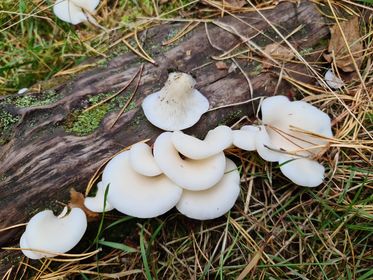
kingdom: Fungi
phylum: Basidiomycota
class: Agaricomycetes
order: Agaricales
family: Marasmiaceae
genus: Pleurocybella
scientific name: Pleurocybella porrigens
